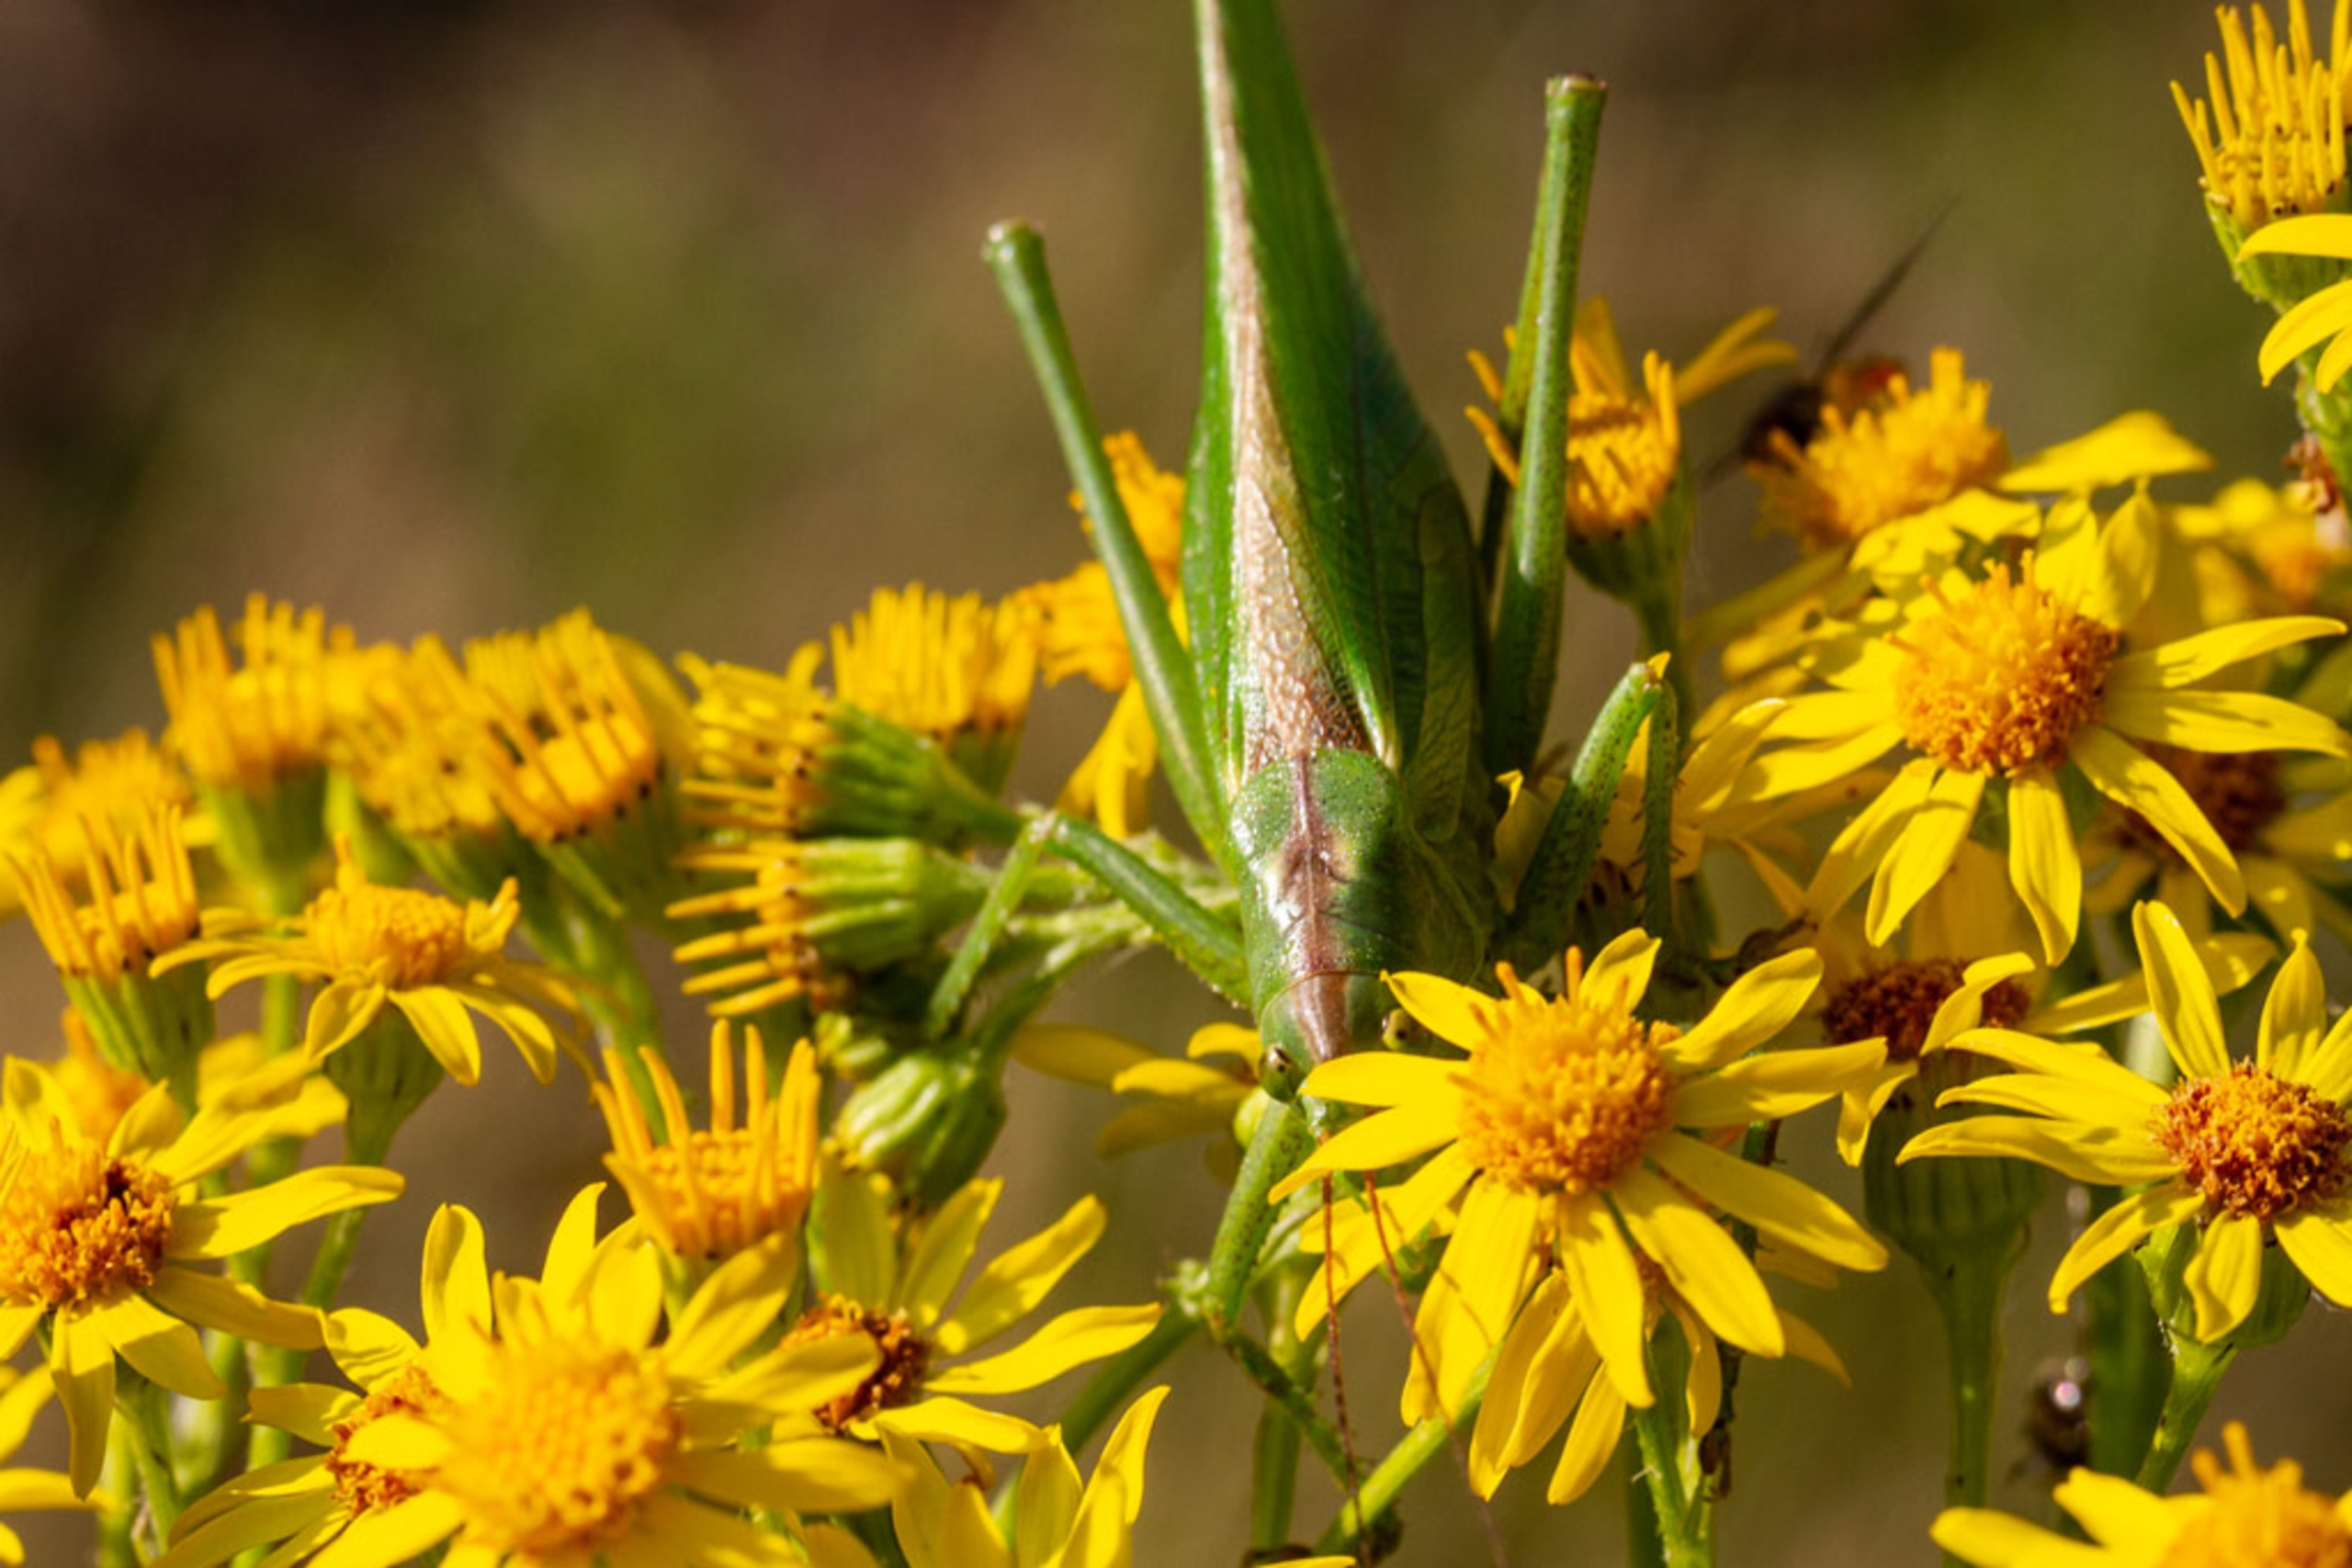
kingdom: Animalia
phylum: Arthropoda
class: Insecta
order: Orthoptera
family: Tettigoniidae
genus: Tettigonia
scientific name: Tettigonia viridissima
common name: Stor grøn løvgræshoppe
